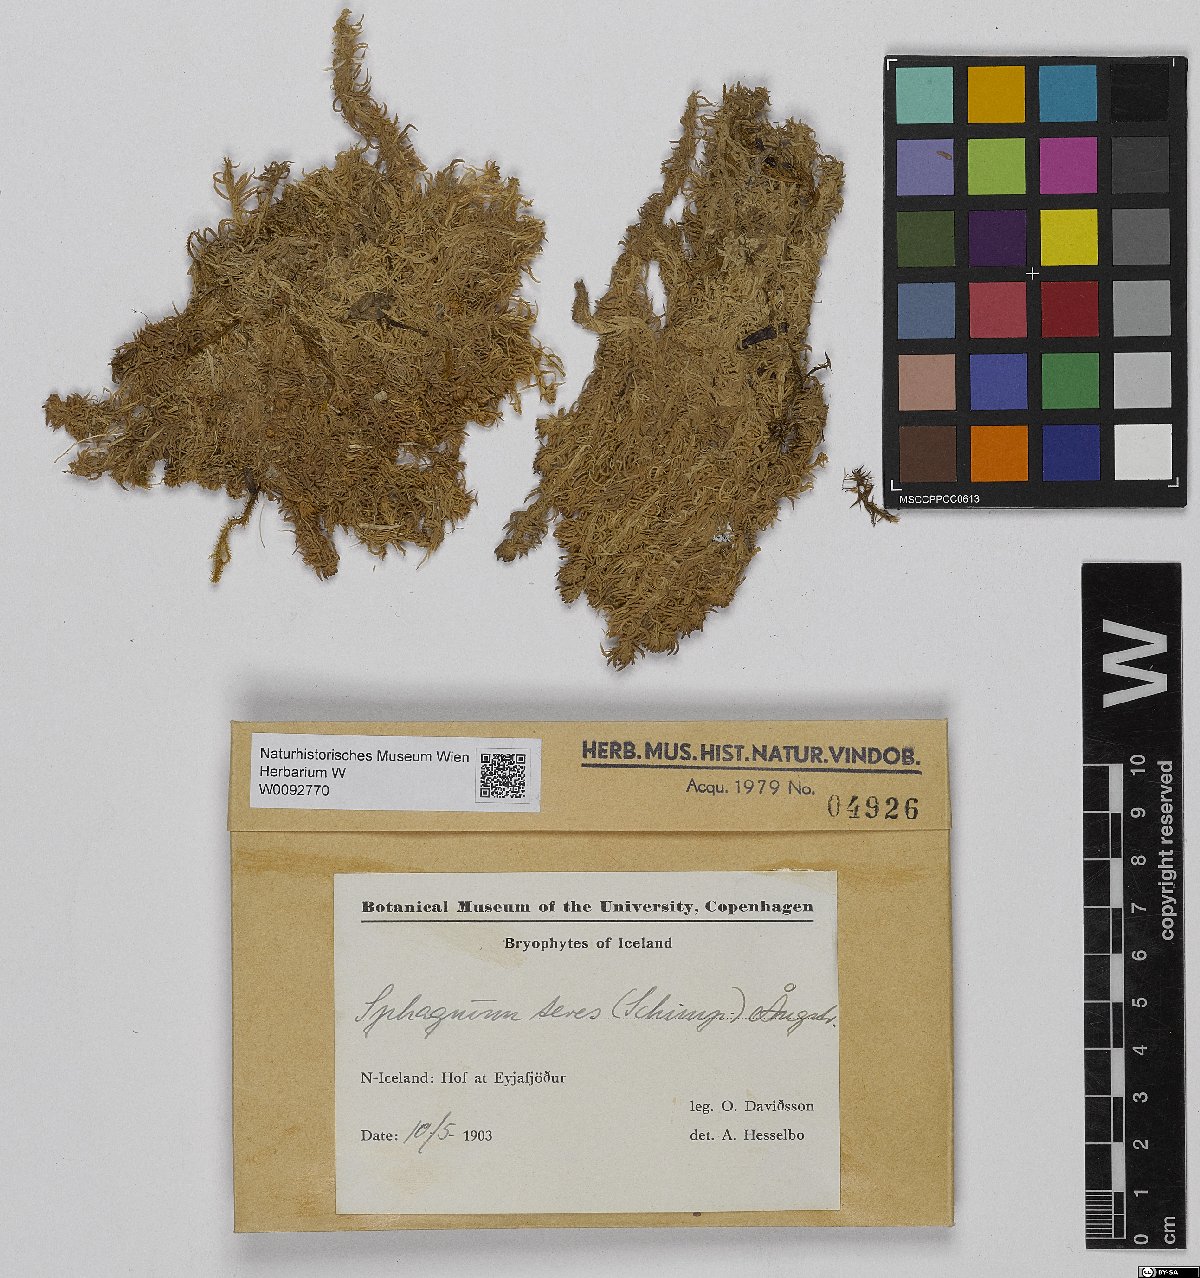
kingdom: Plantae
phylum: Bryophyta
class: Sphagnopsida
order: Sphagnales
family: Sphagnaceae
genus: Sphagnum
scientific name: Sphagnum teres
